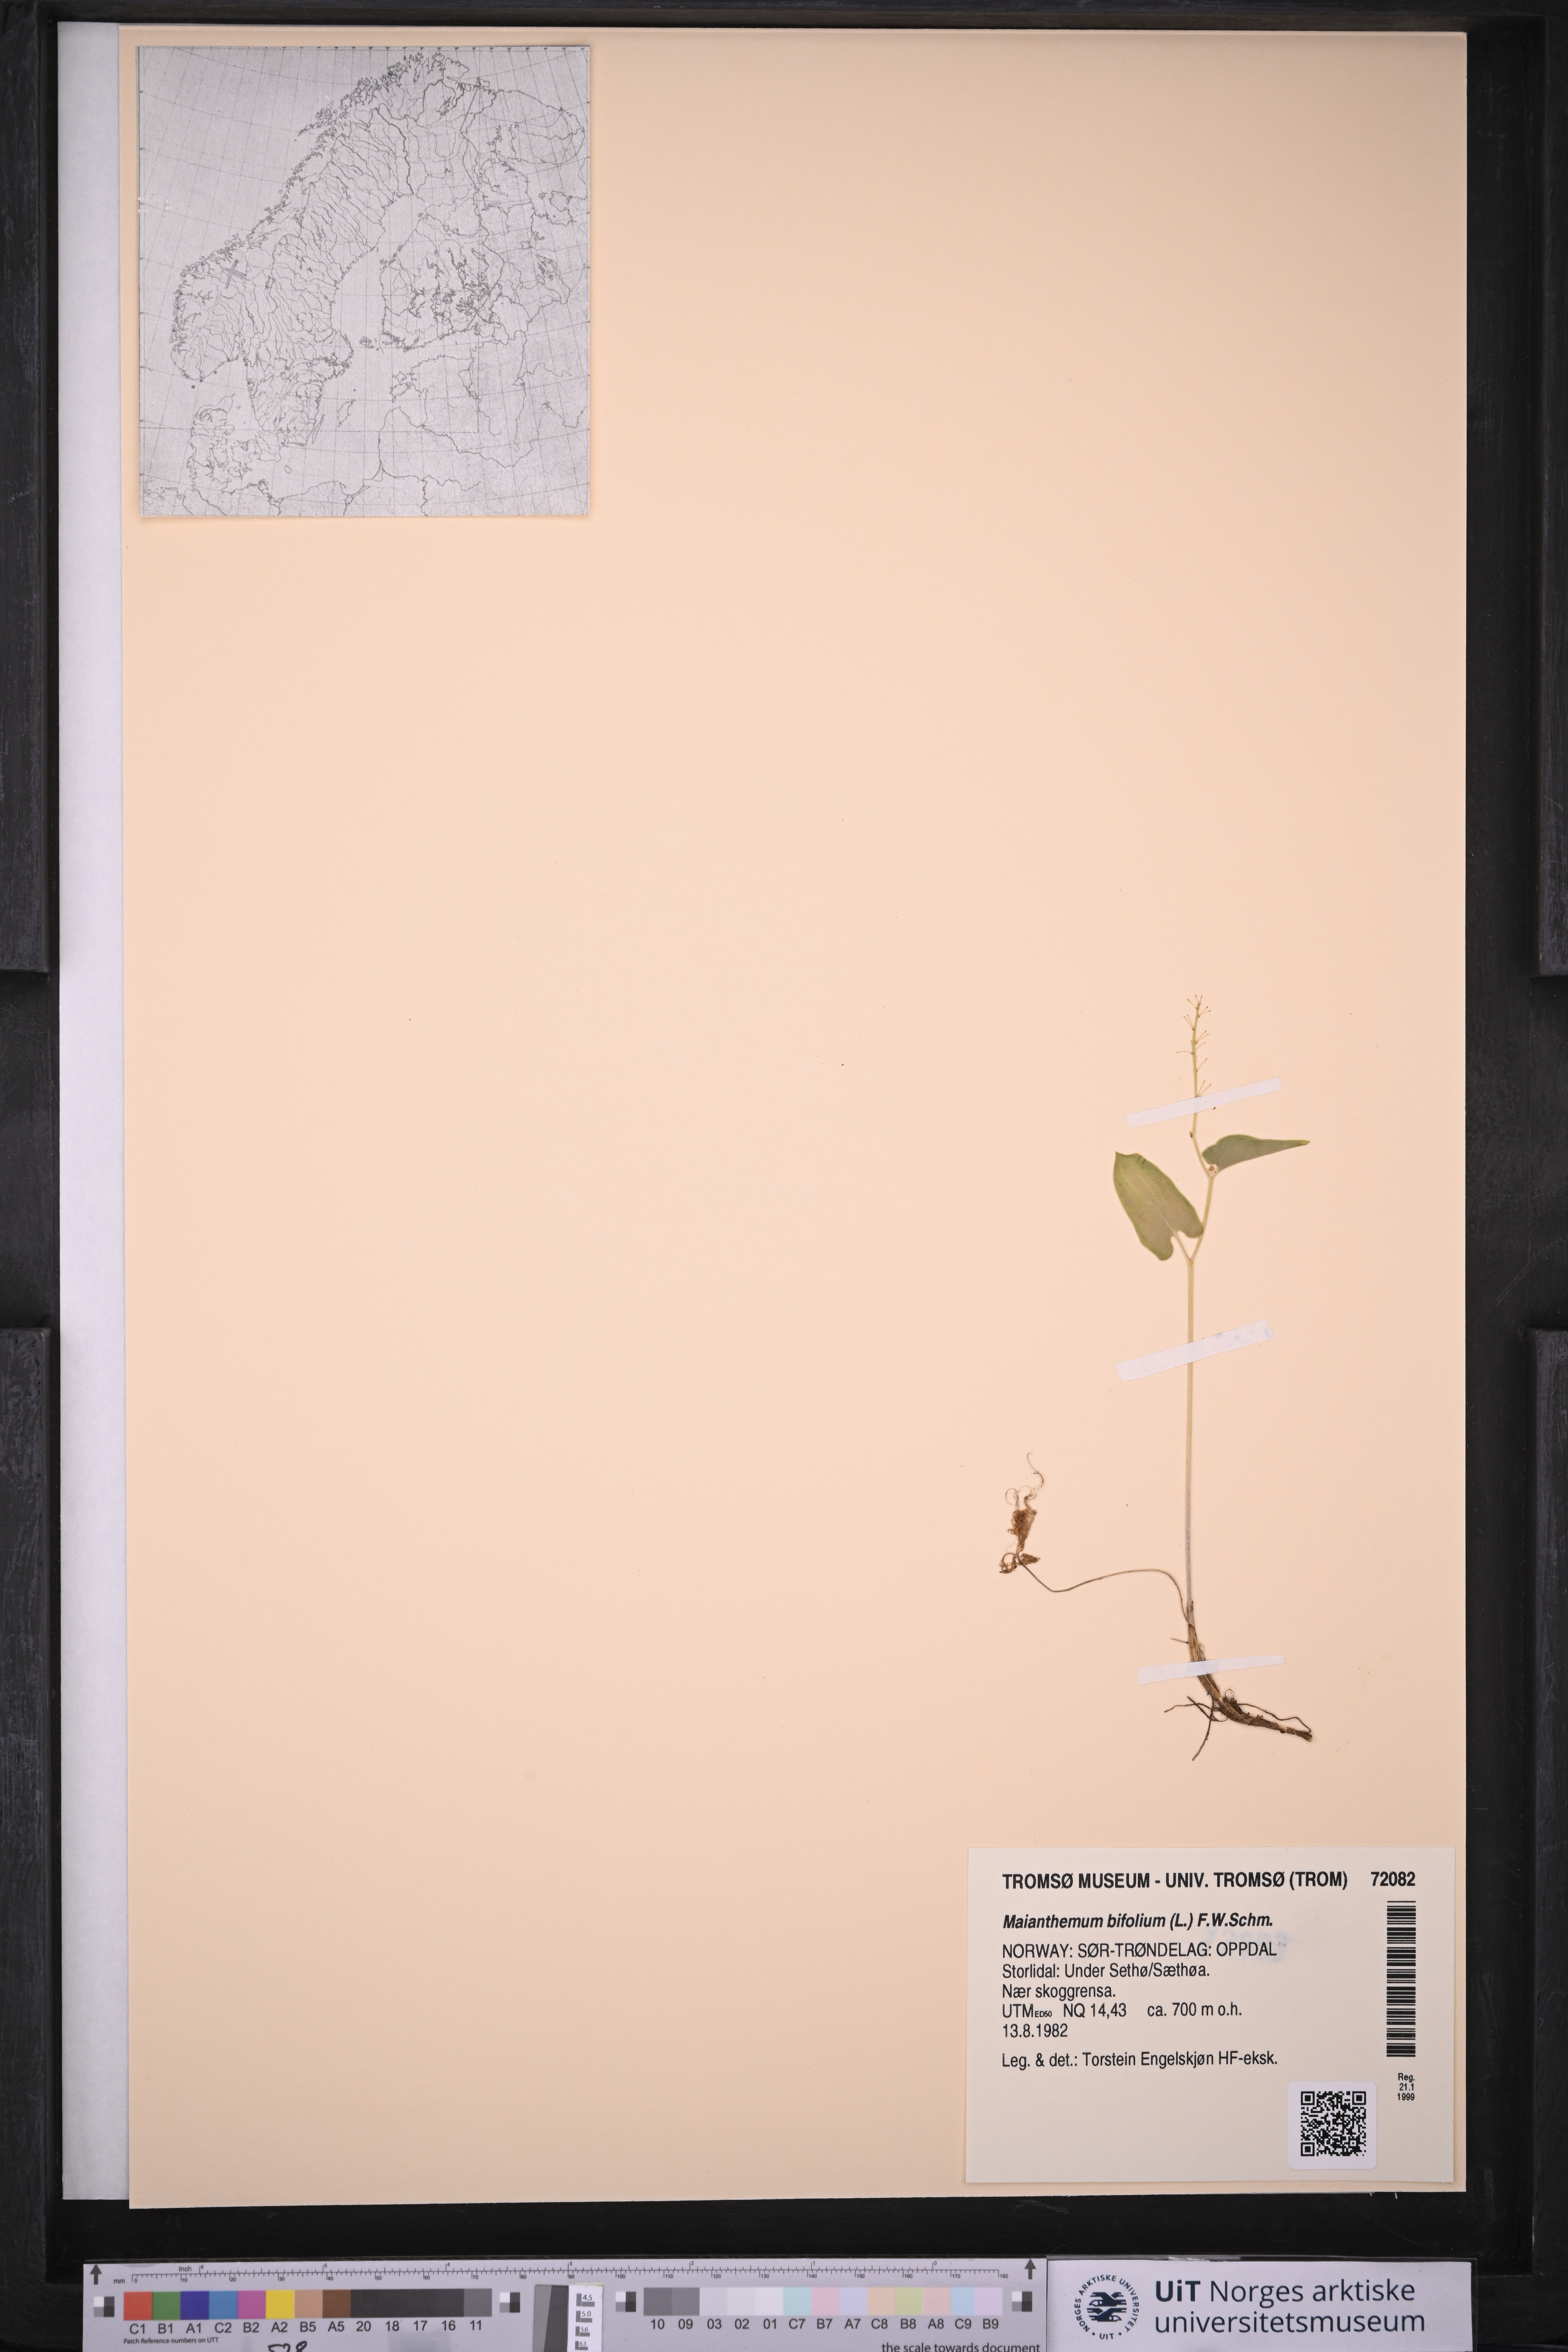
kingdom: Plantae
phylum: Tracheophyta
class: Liliopsida
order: Asparagales
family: Asparagaceae
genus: Maianthemum
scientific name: Maianthemum bifolium
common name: May lily
